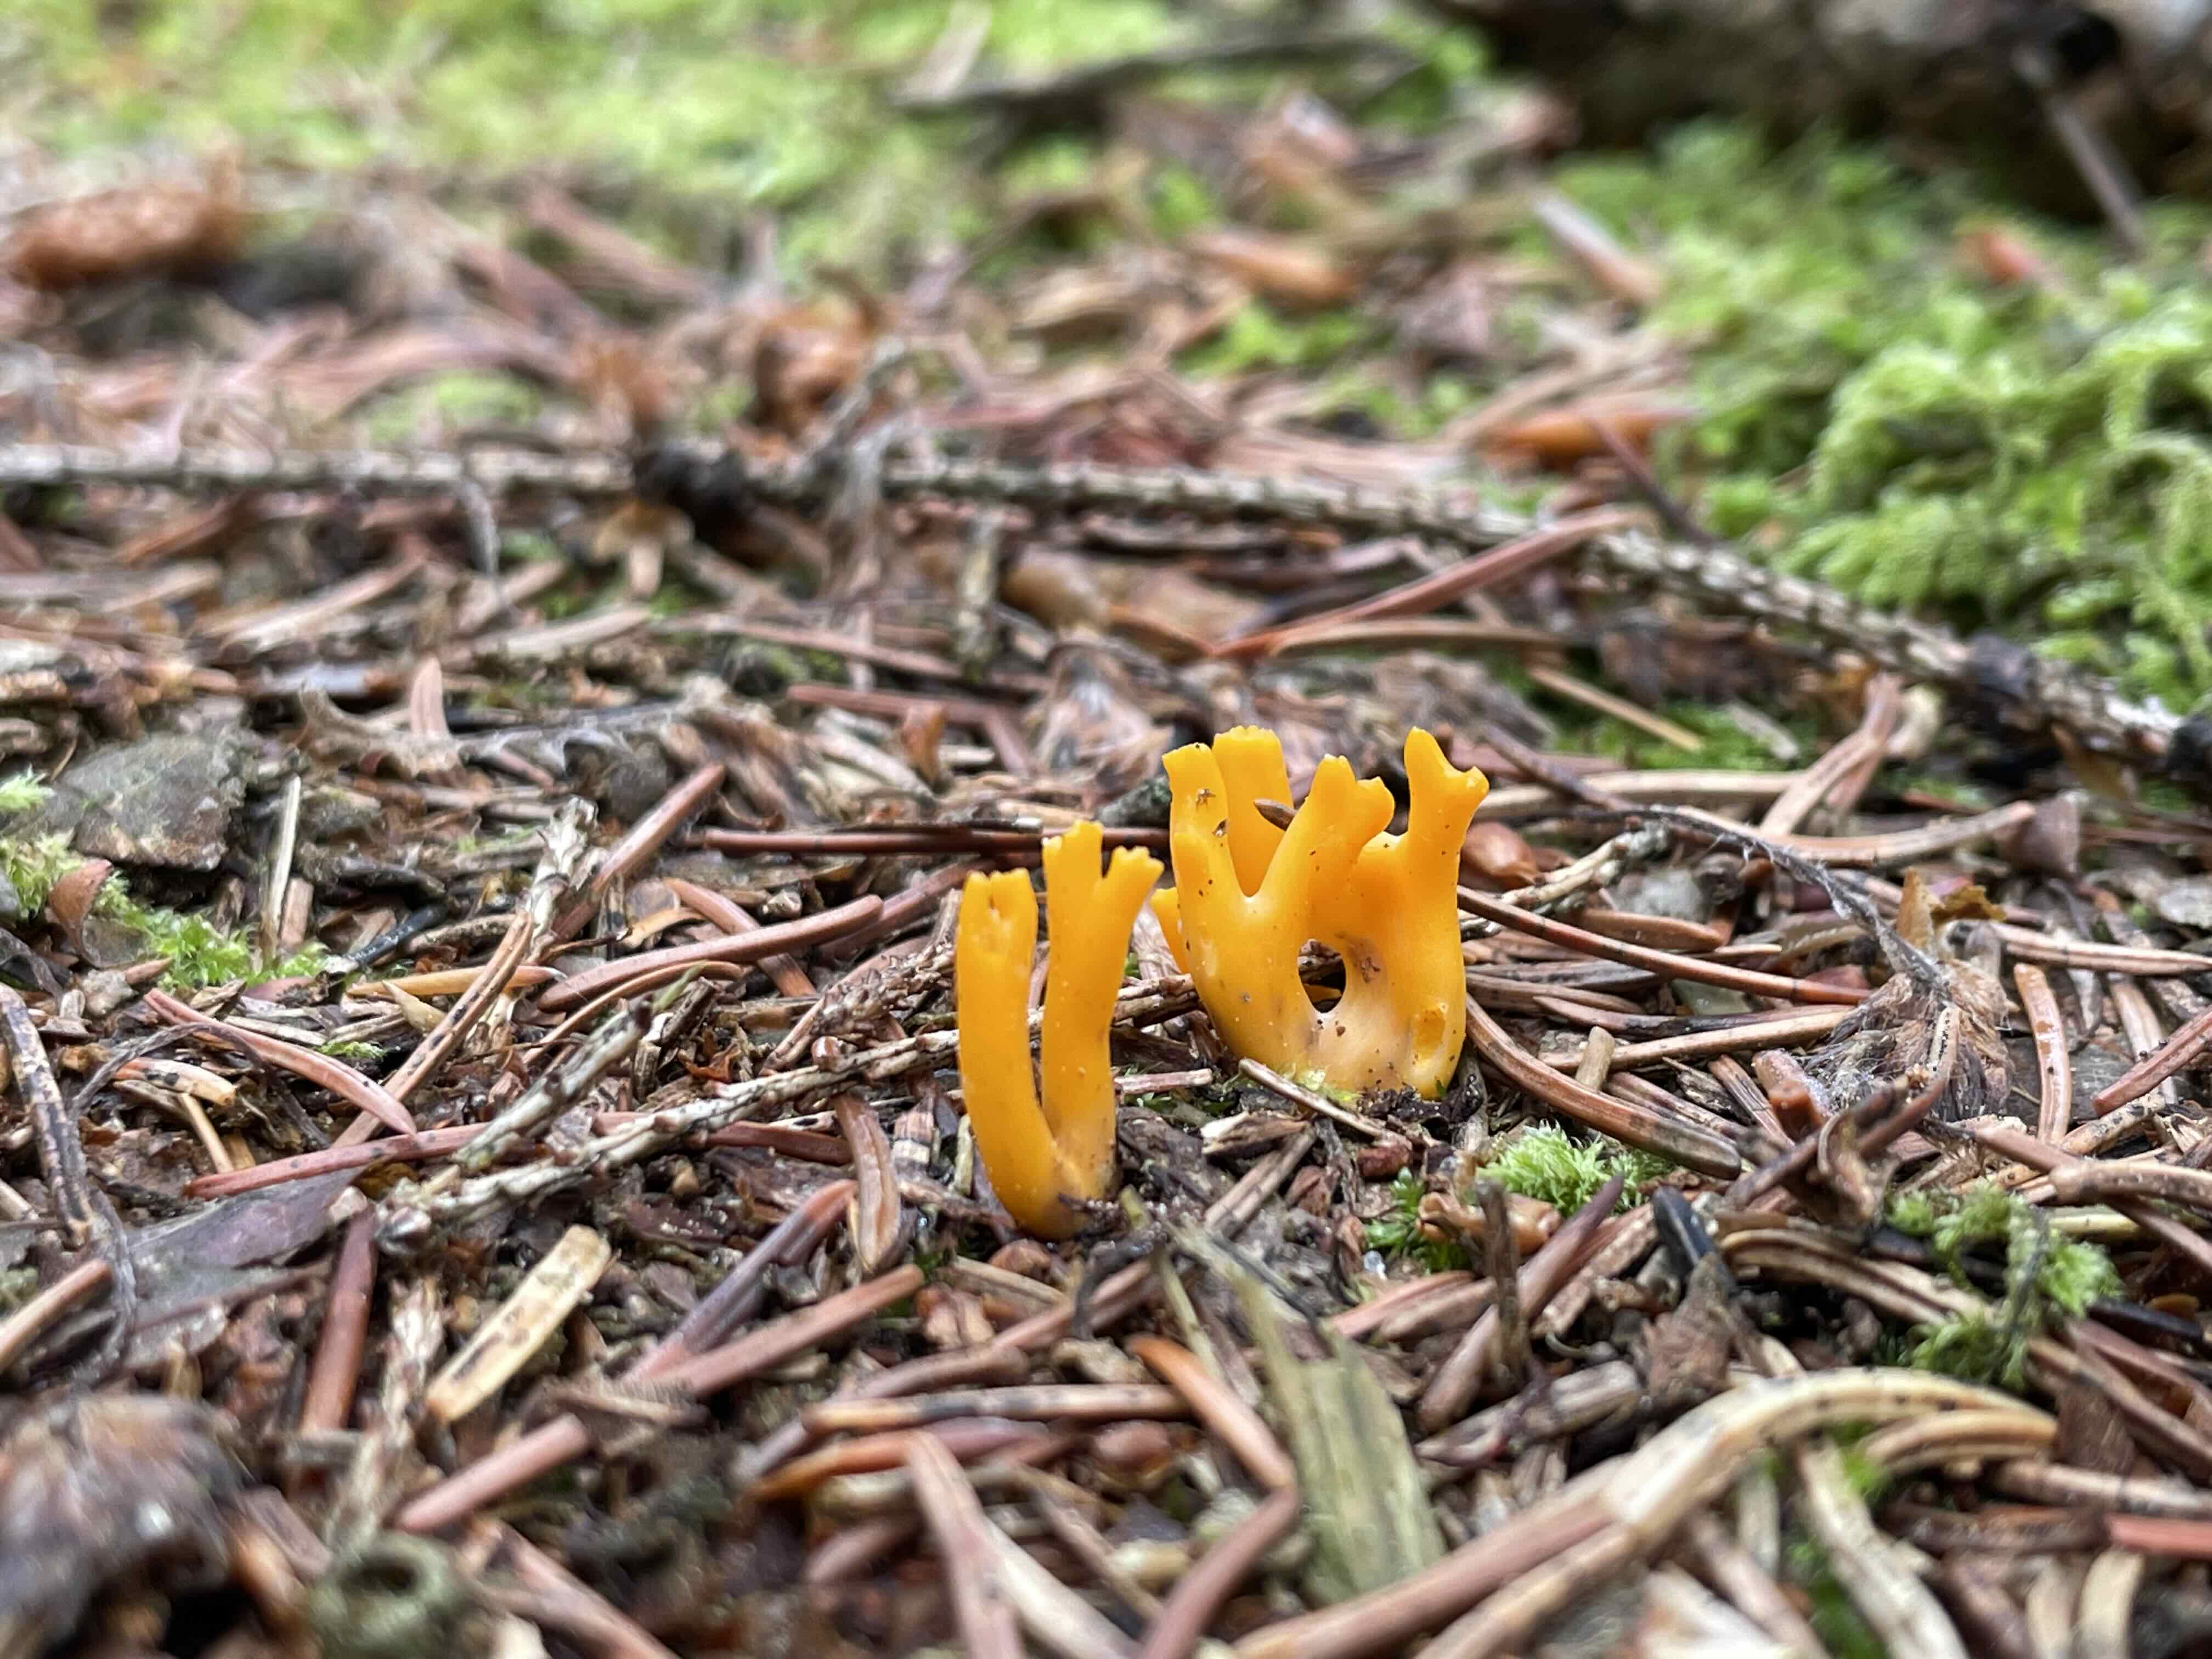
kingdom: Fungi
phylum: Basidiomycota
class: Dacrymycetes
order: Dacrymycetales
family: Dacrymycetaceae
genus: Calocera
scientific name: Calocera viscosa
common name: almindelig guldgaffel
